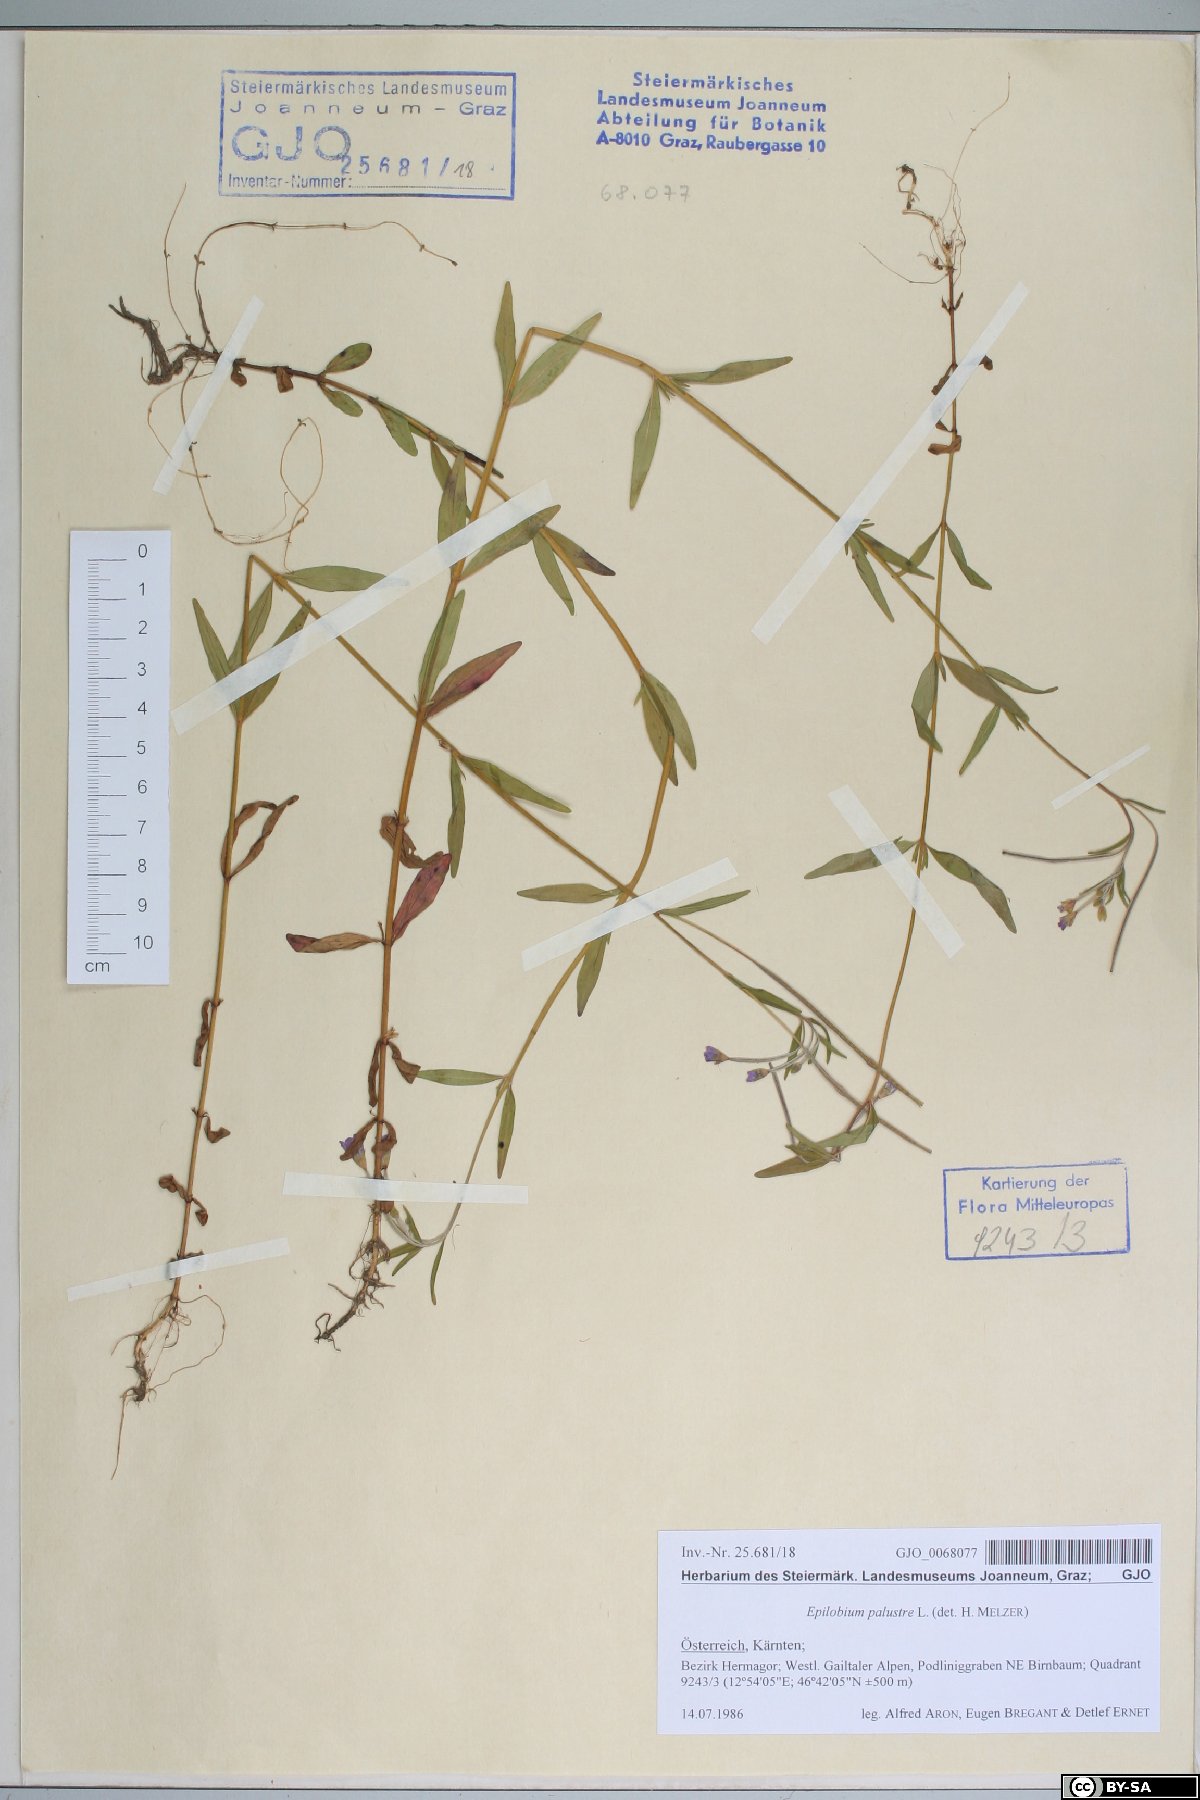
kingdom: Plantae
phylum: Tracheophyta
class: Magnoliopsida
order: Myrtales
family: Onagraceae
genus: Epilobium
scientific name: Epilobium palustre
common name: Marsh willowherb
